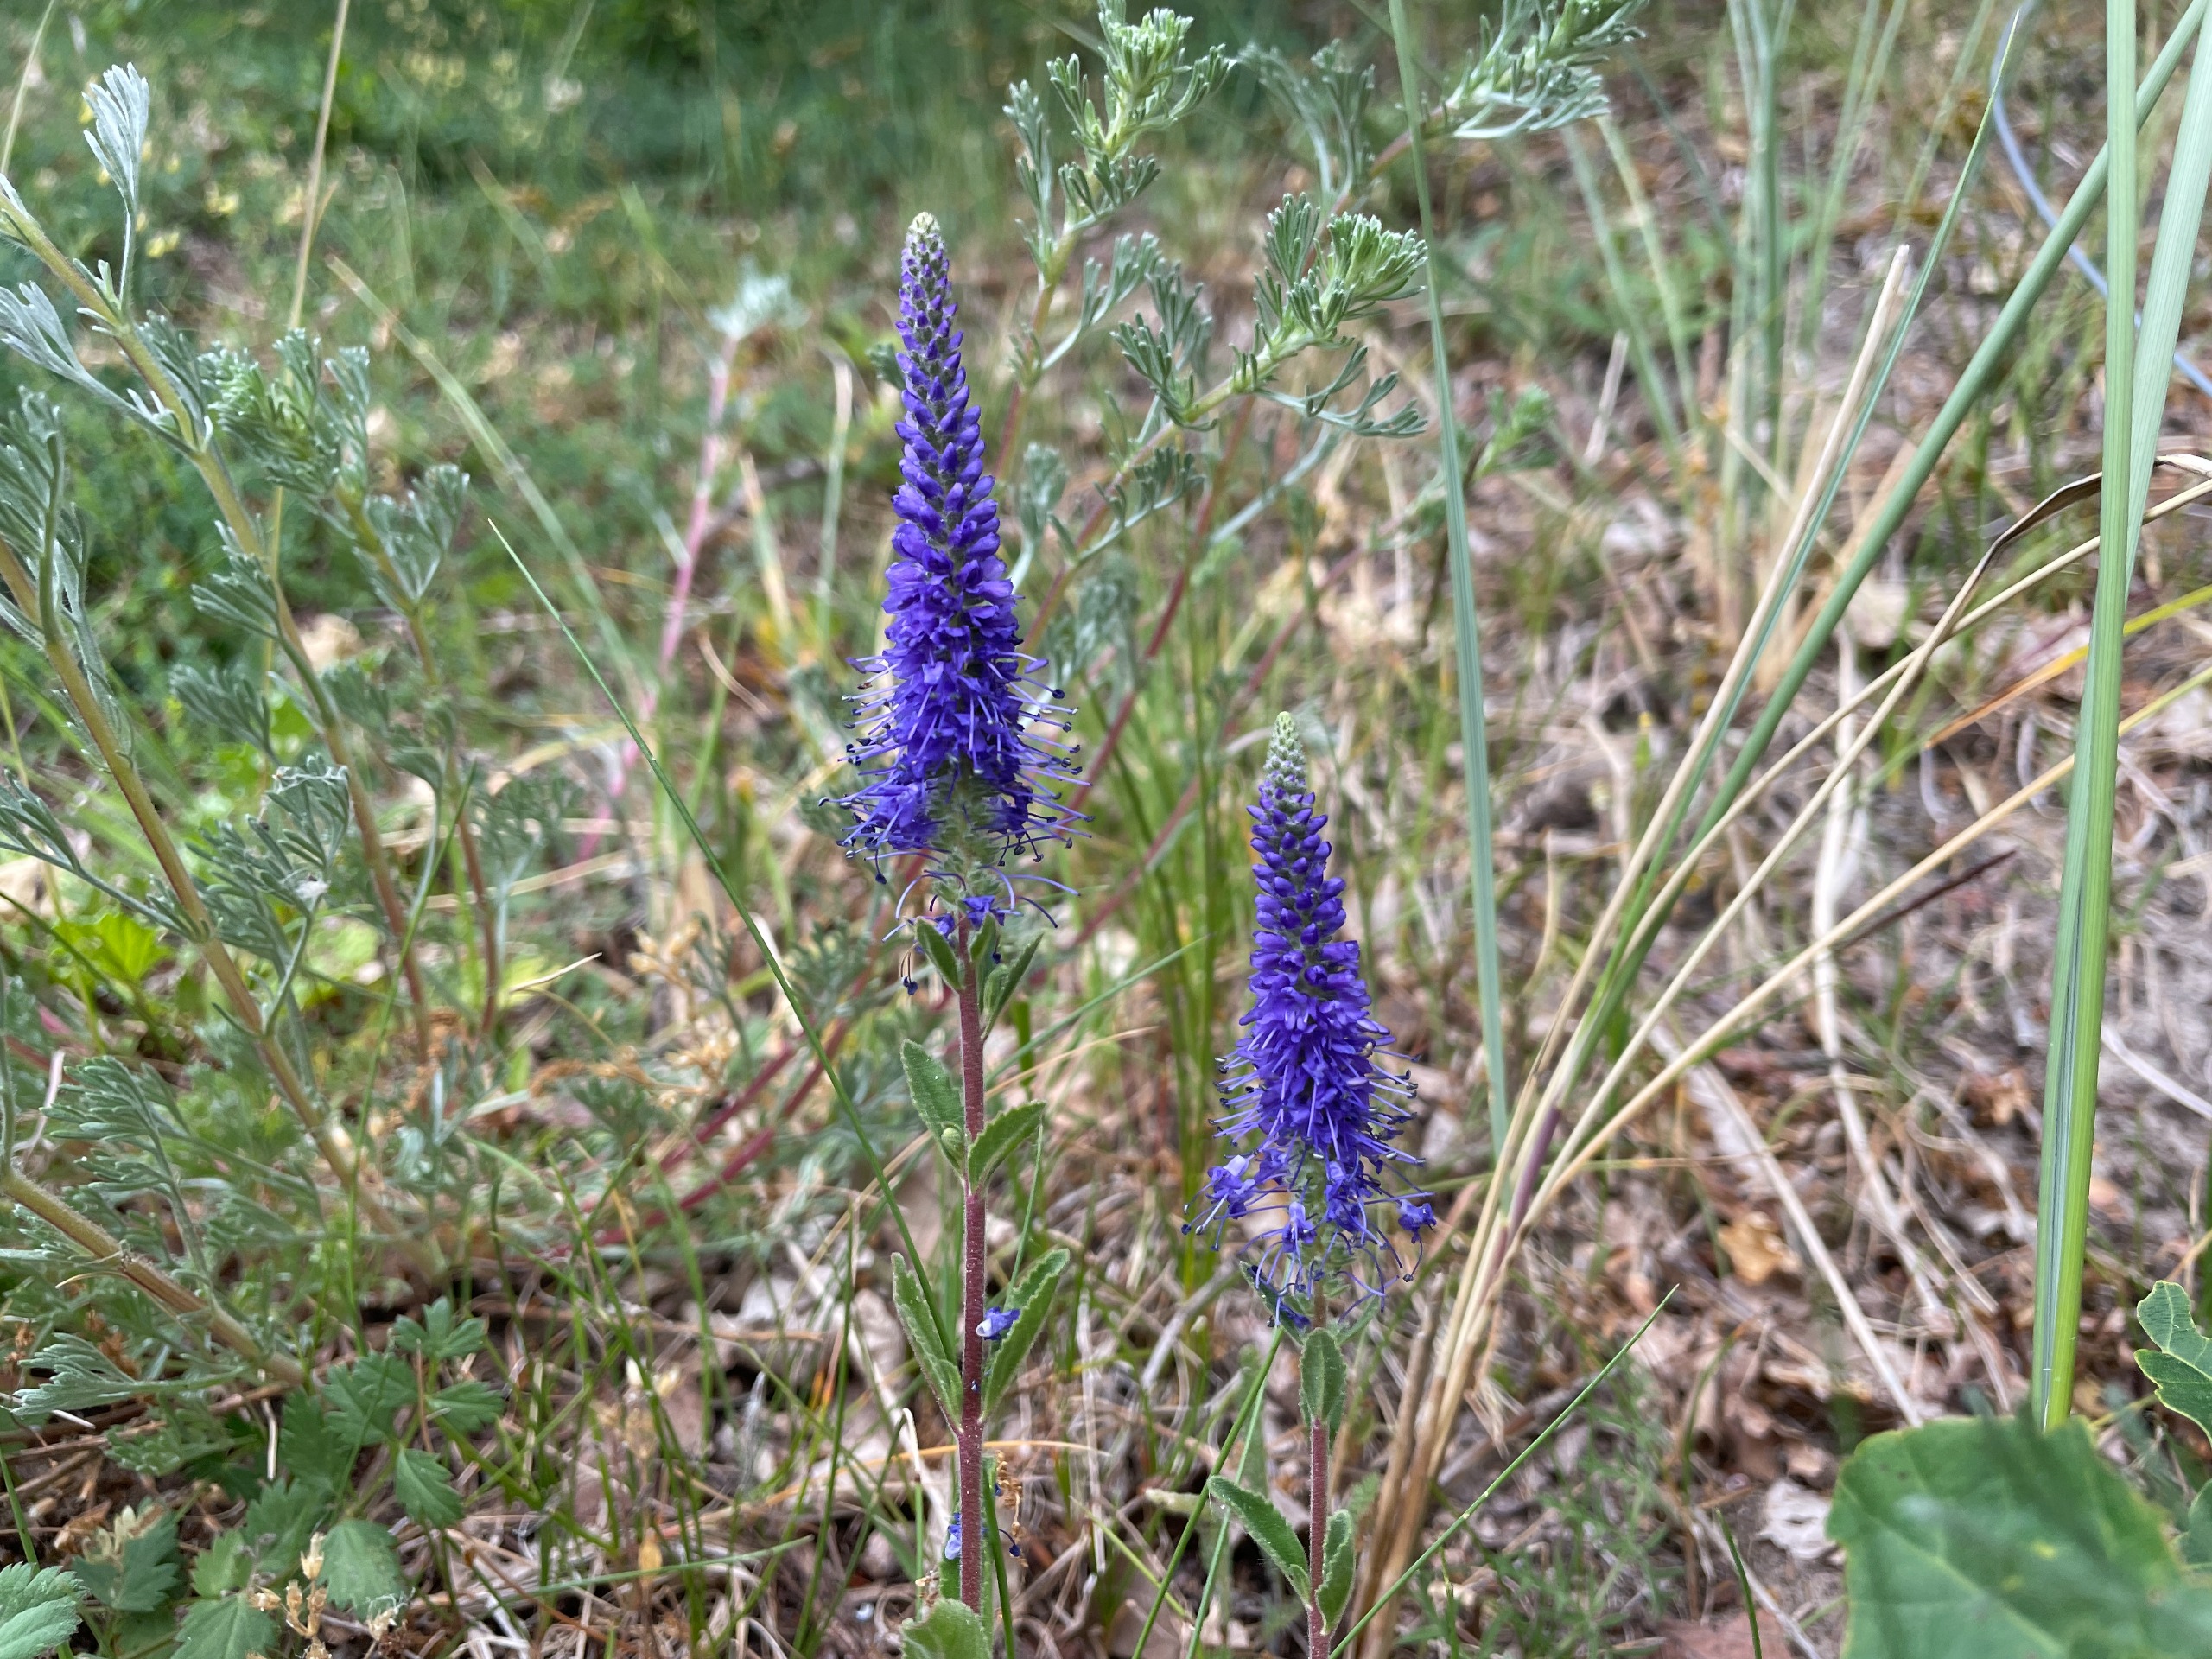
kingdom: Plantae
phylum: Tracheophyta
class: Magnoliopsida
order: Lamiales
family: Plantaginaceae
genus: Veronica
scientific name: Veronica spicata
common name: Aks-ærenpris
